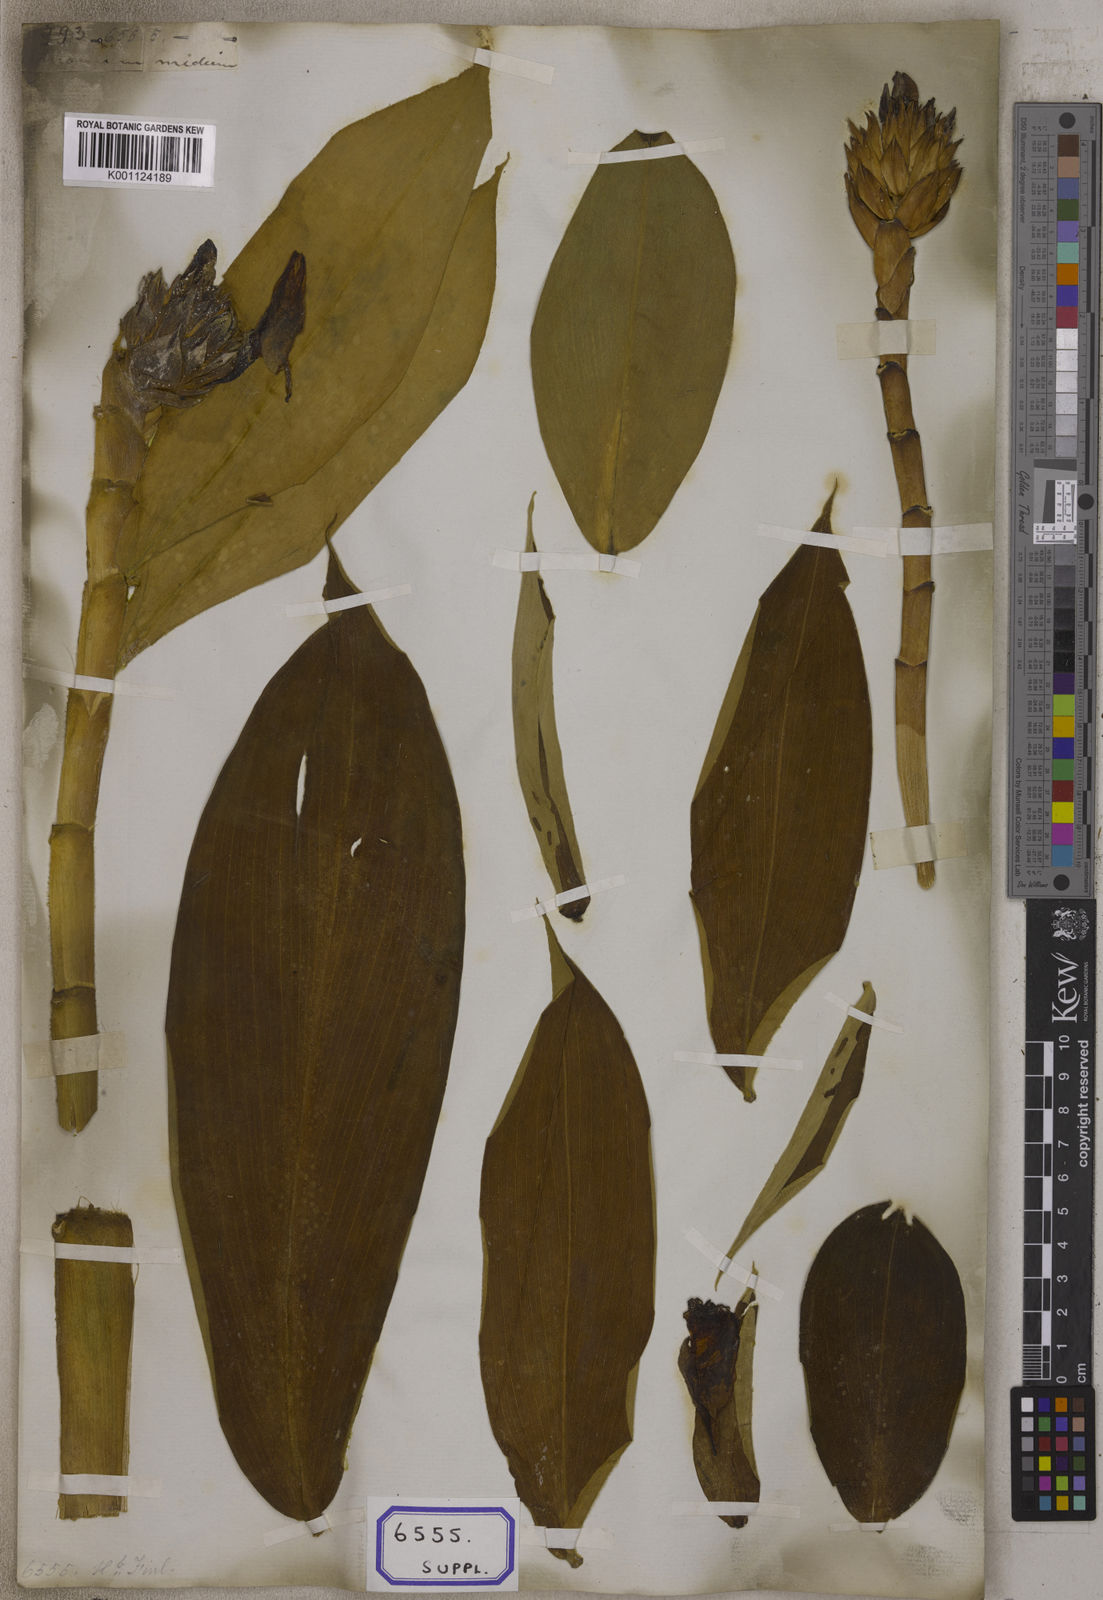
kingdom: Plantae
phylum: Tracheophyta
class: Liliopsida
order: Zingiberales
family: Costaceae
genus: Hellenia
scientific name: Hellenia speciosa
